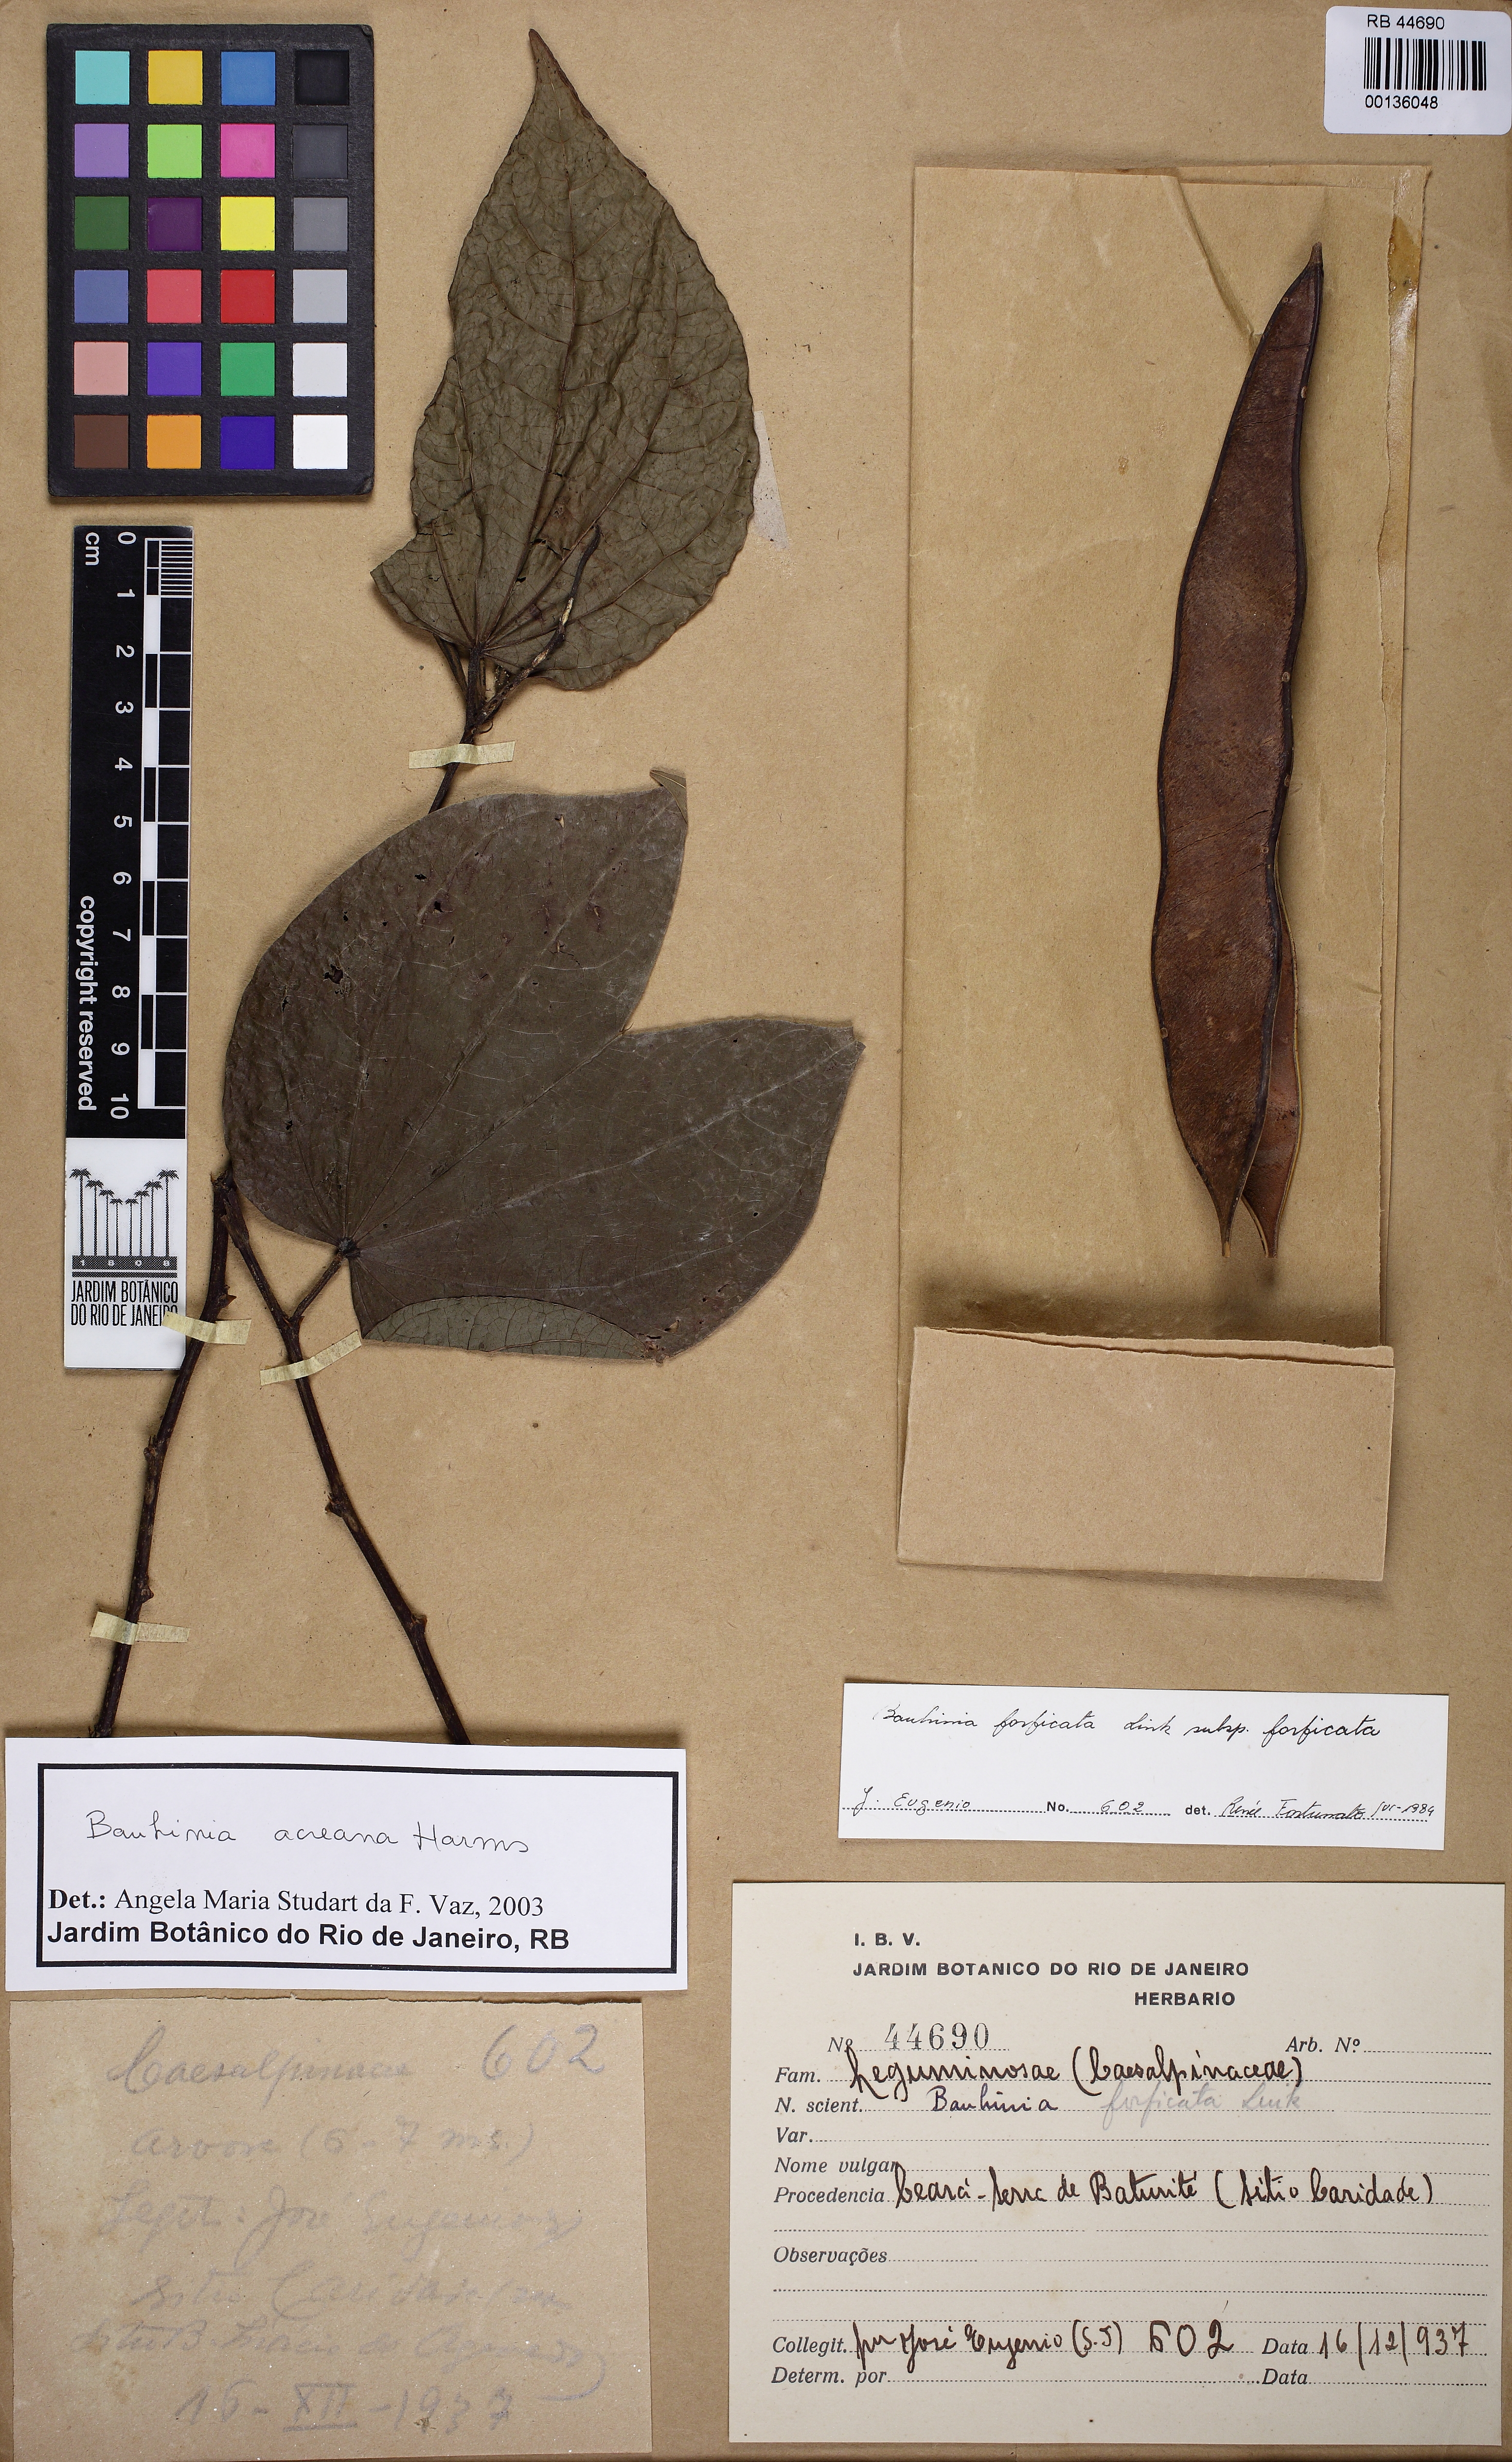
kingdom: Plantae
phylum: Tracheophyta
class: Magnoliopsida
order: Fabales
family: Fabaceae
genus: Bauhinia
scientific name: Bauhinia acreana
